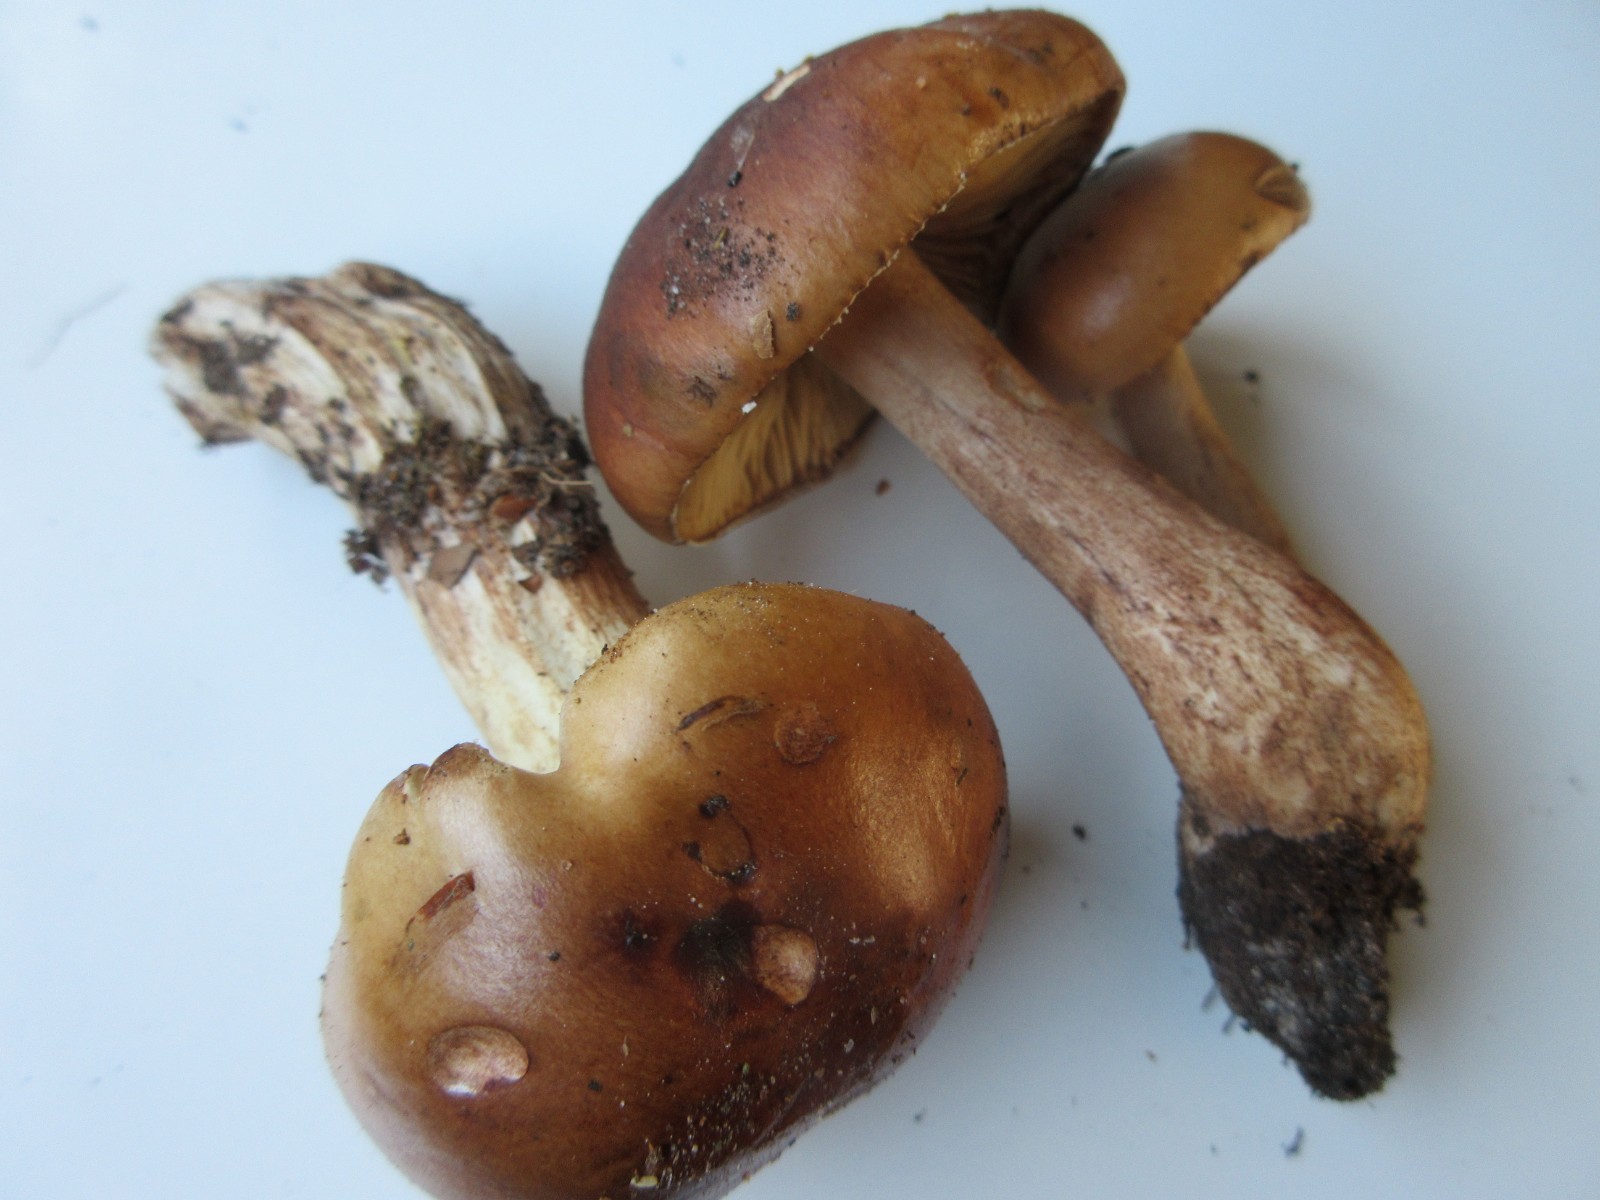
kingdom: Fungi
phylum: Basidiomycota
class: Agaricomycetes
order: Agaricales
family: Tricholomataceae
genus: Tricholoma
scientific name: Tricholoma ustale
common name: sveden ridderhat
